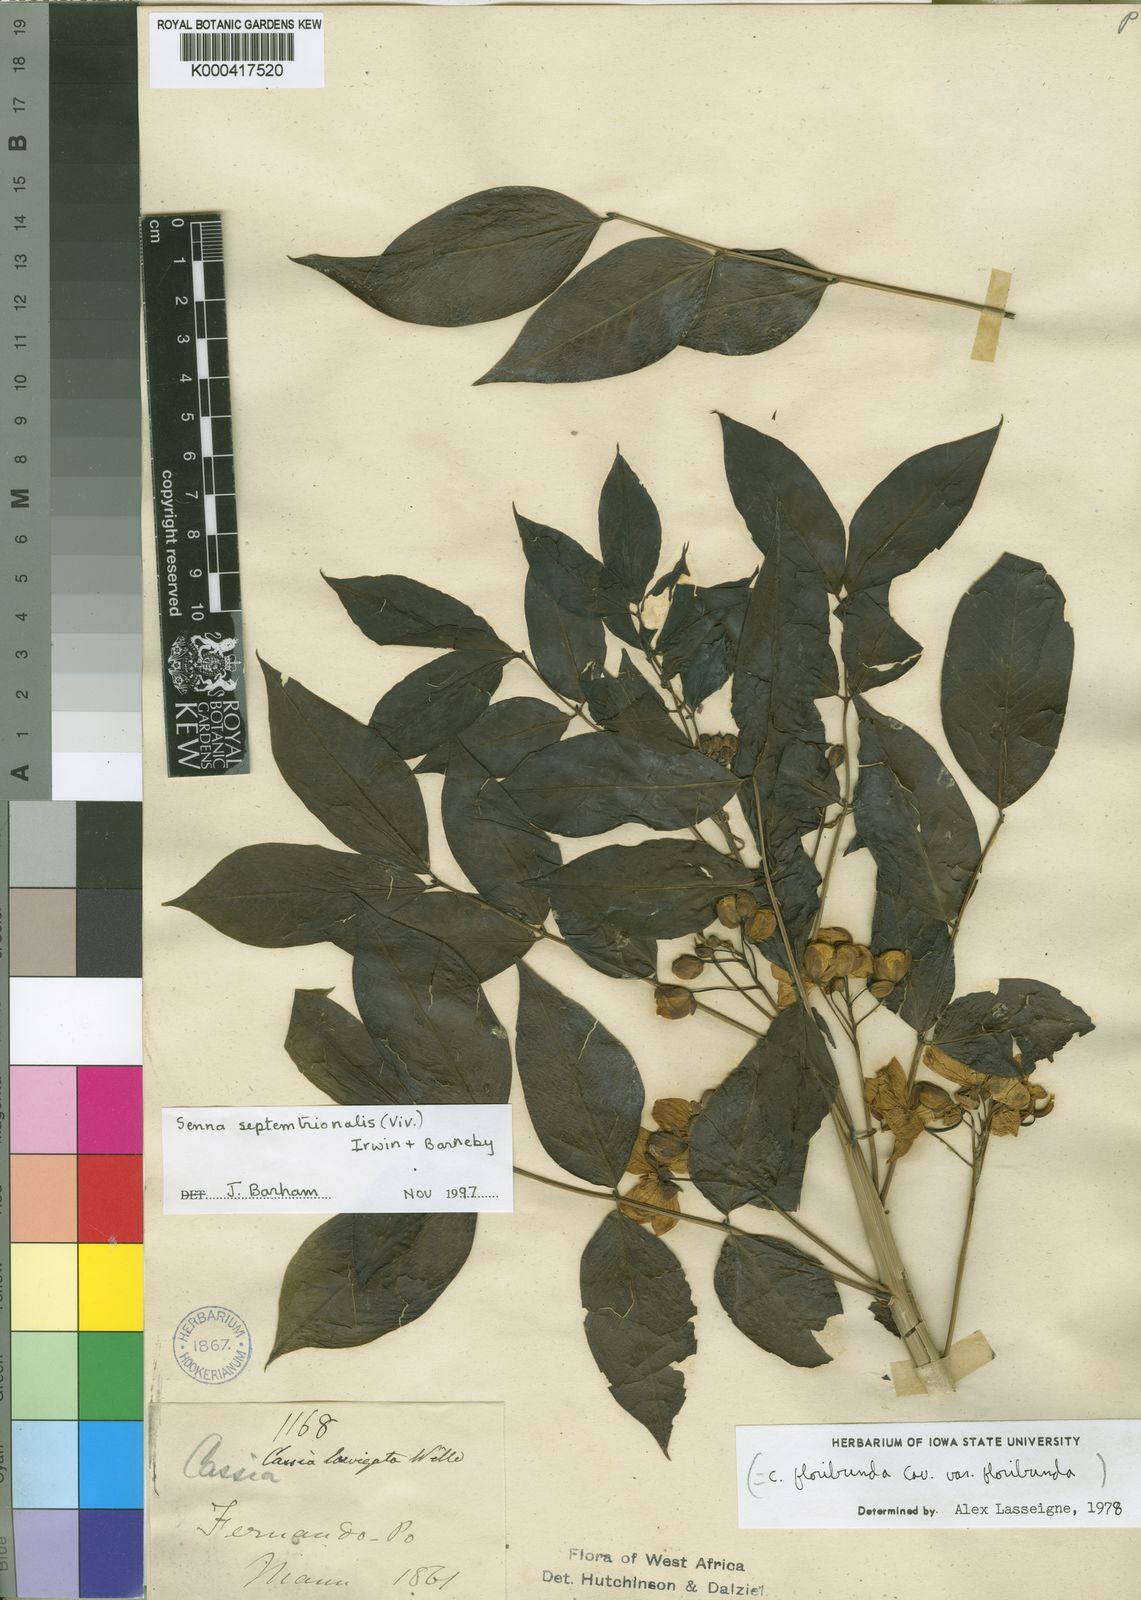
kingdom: Plantae
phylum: Tracheophyta
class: Magnoliopsida
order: Fabales
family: Fabaceae
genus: Senna
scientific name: Senna septemtrionalis
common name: Arsenic bush
